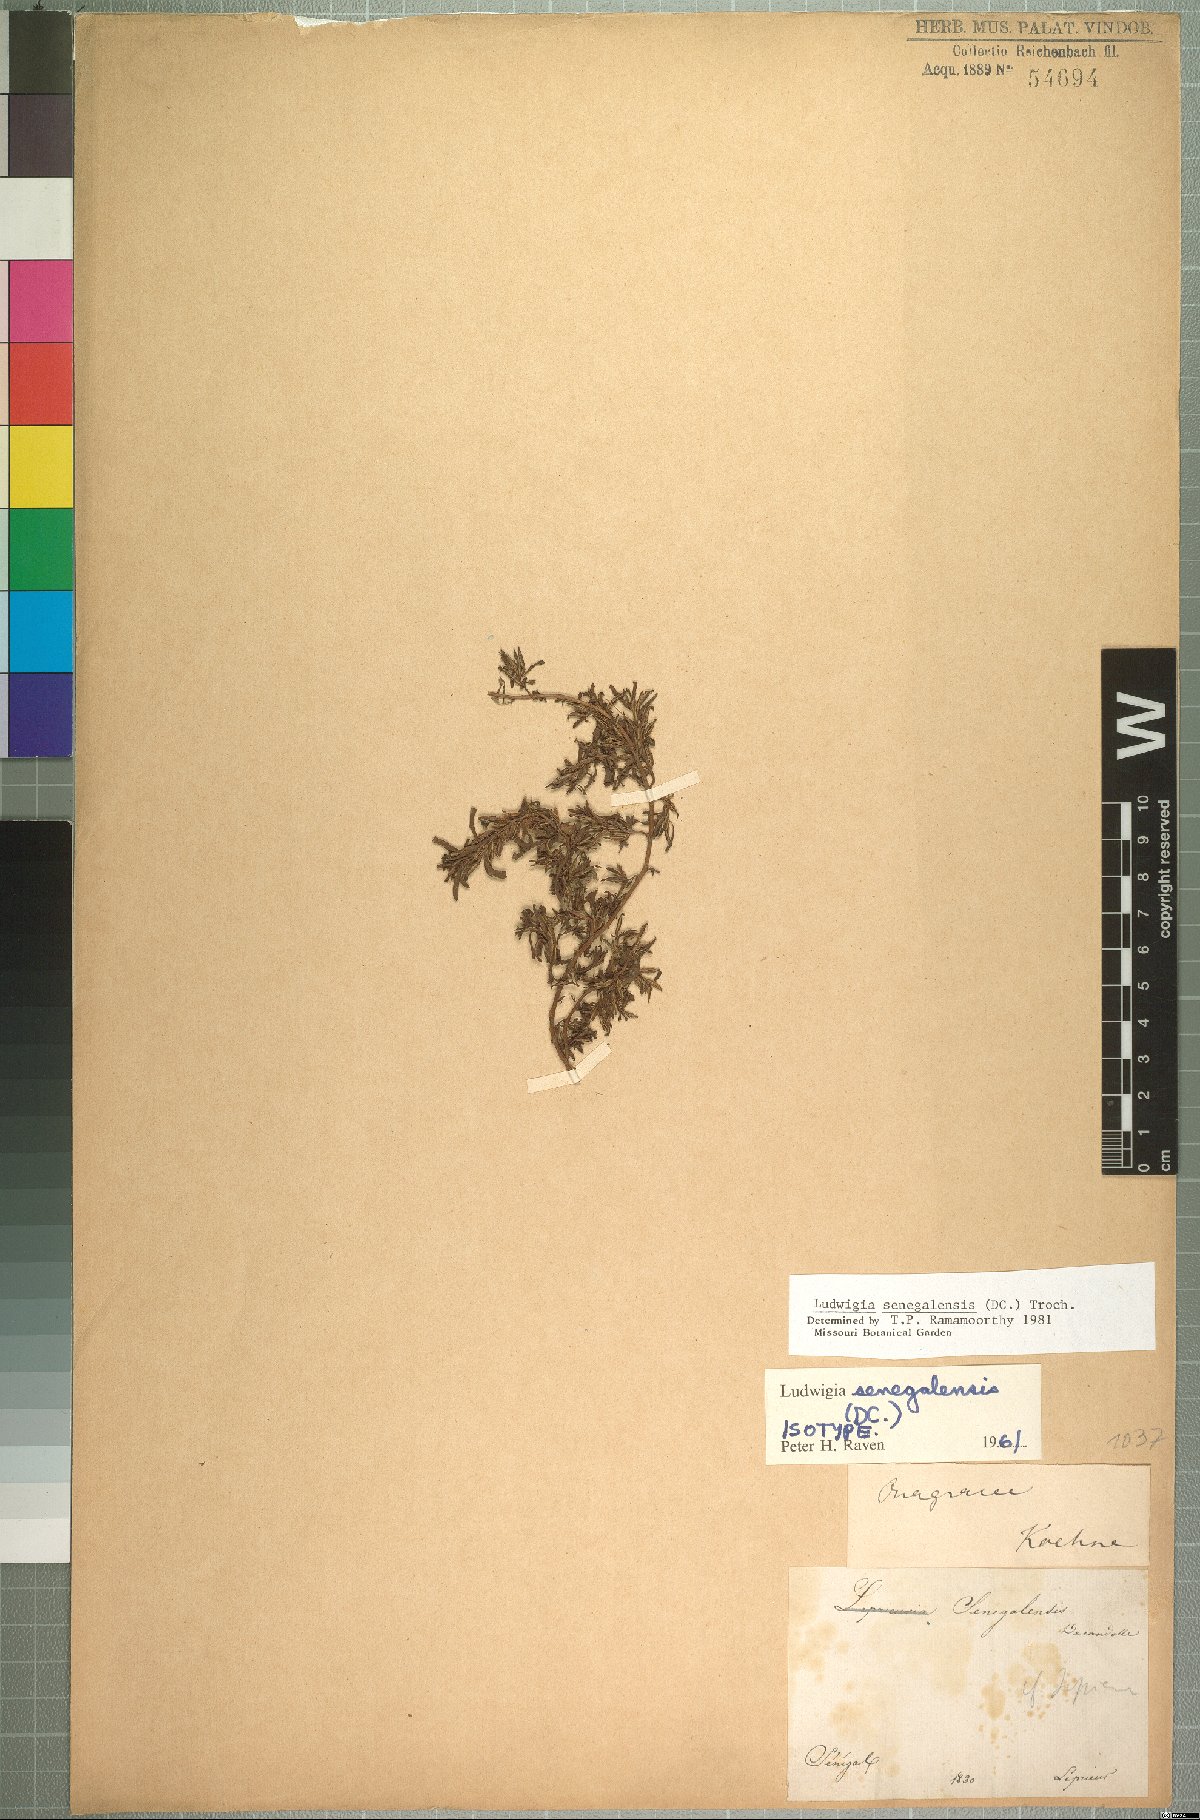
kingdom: Plantae
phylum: Tracheophyta
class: Magnoliopsida
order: Myrtales
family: Onagraceae
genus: Ludwigia
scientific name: Ludwigia senegalensis
